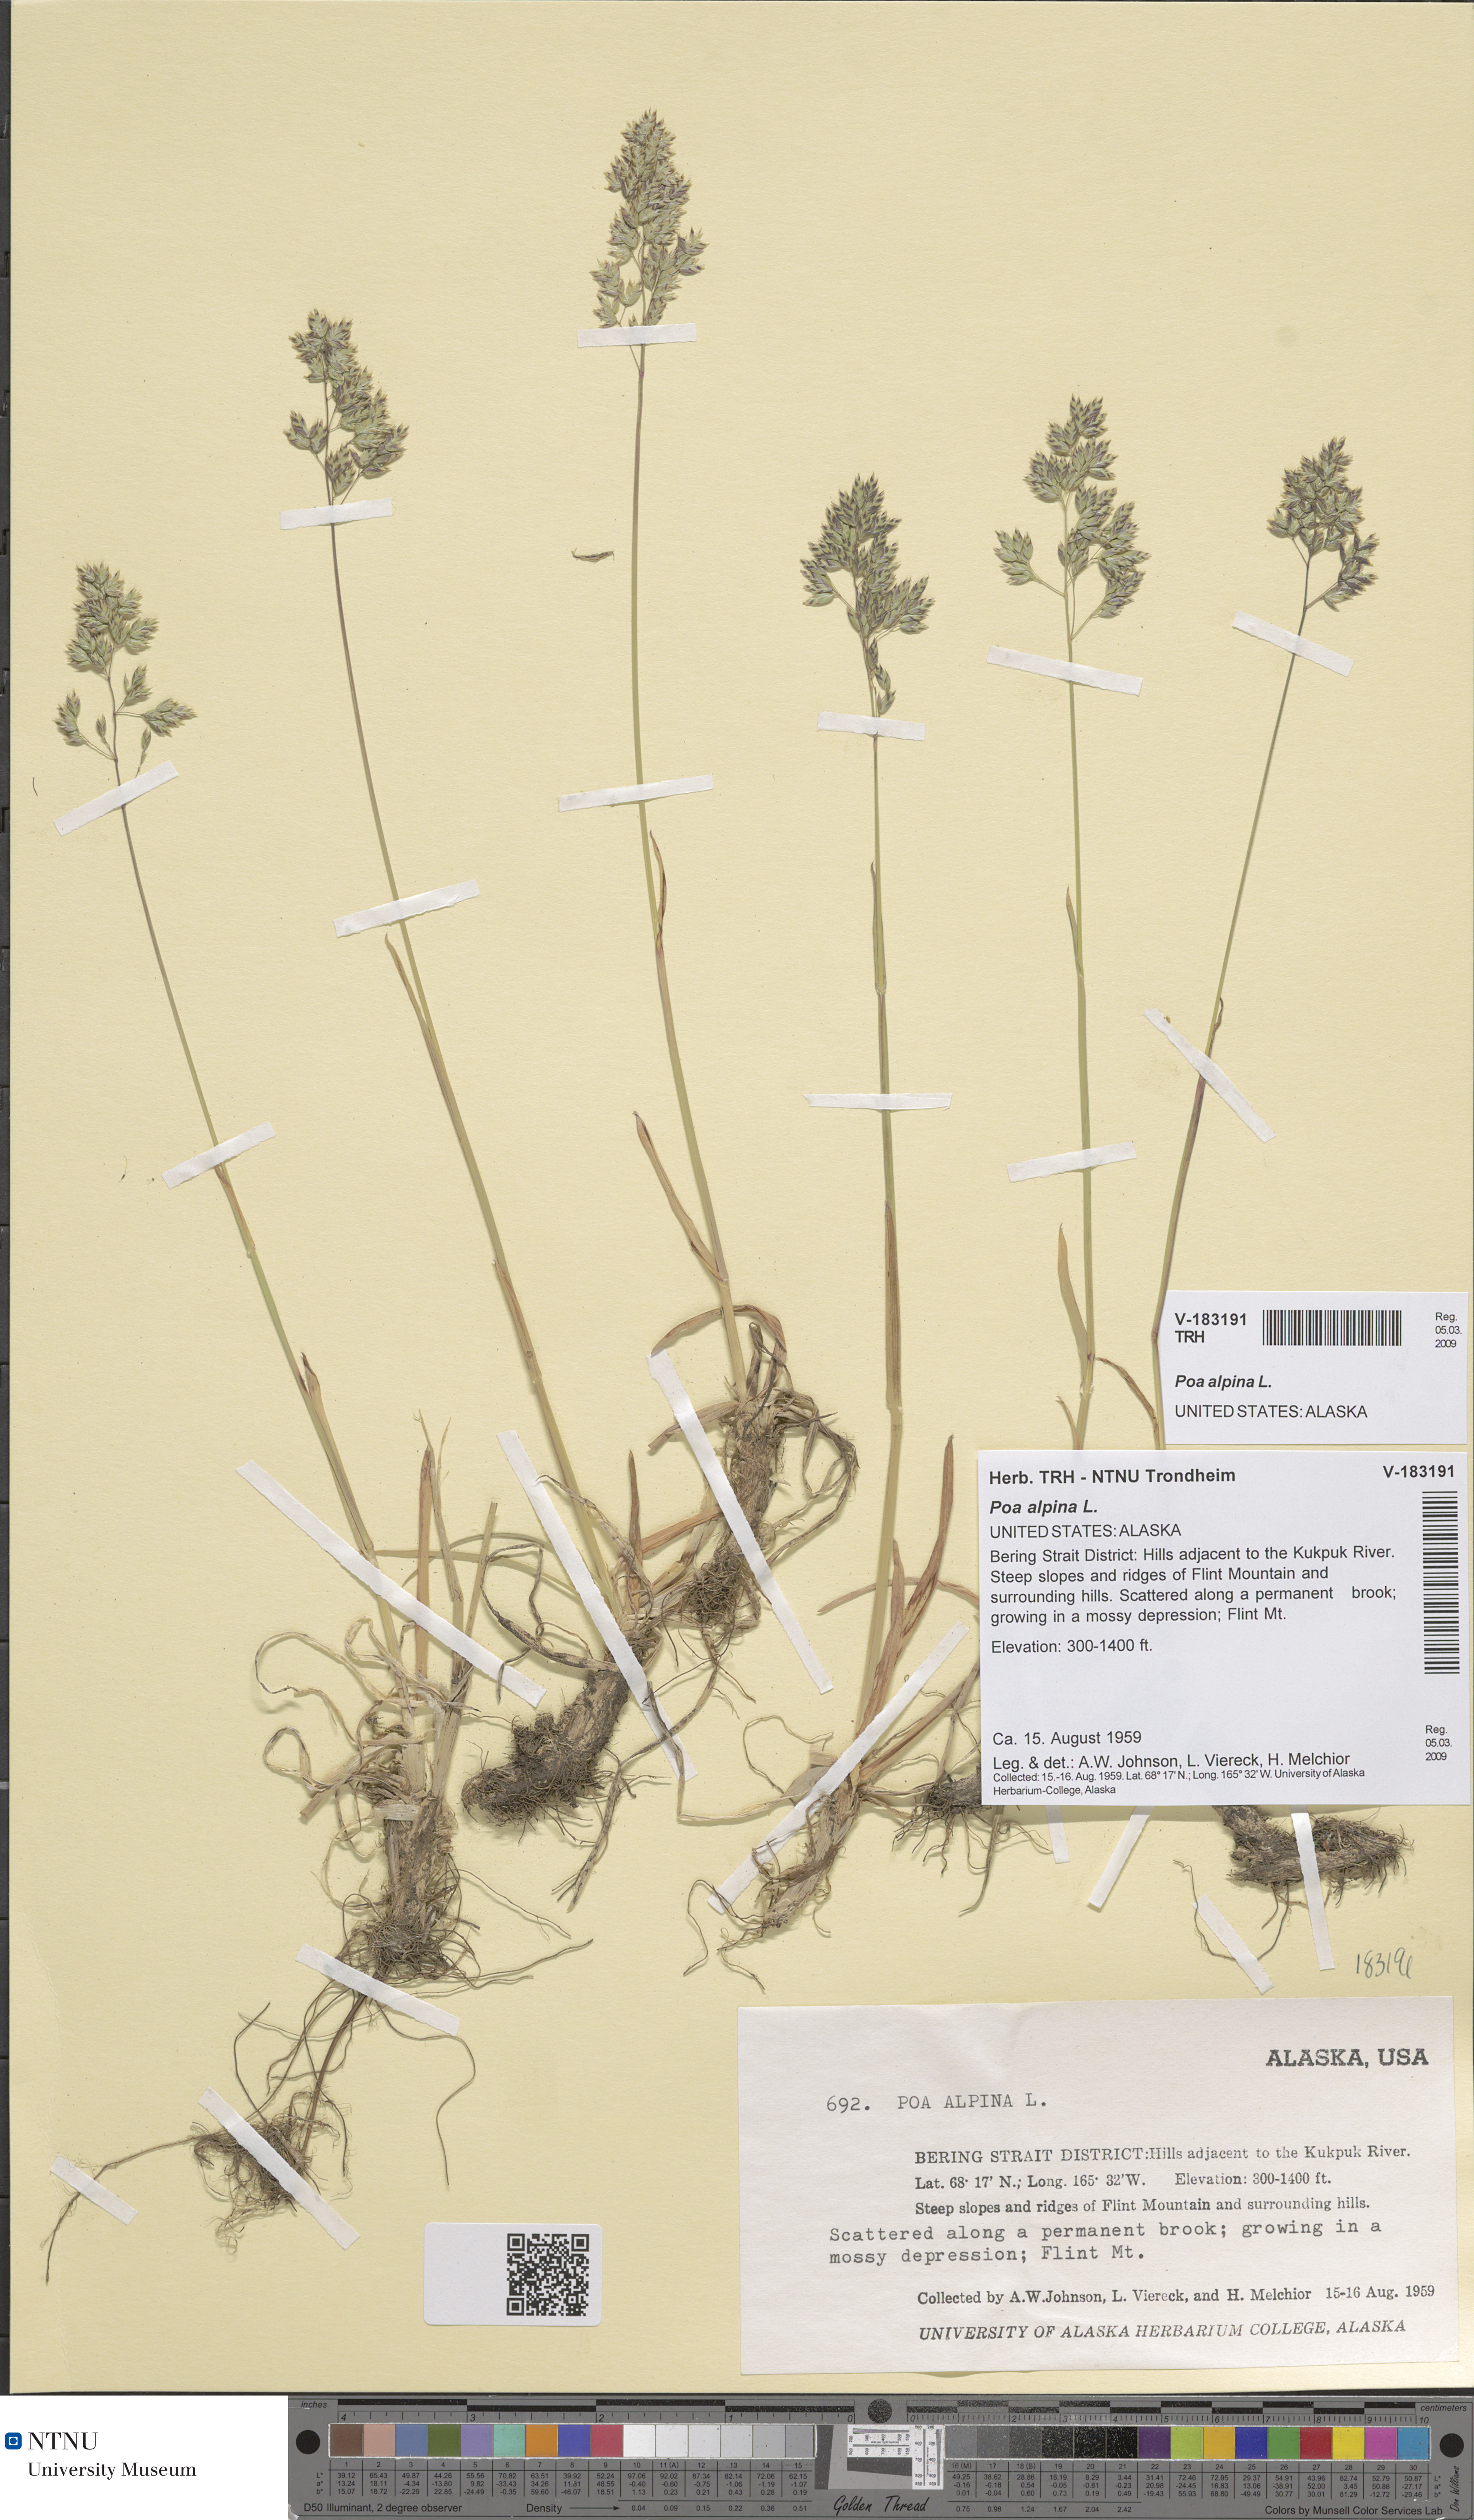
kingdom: Plantae
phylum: Tracheophyta
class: Liliopsida
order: Poales
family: Poaceae
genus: Poa
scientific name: Poa alpina
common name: Alpine bluegrass
